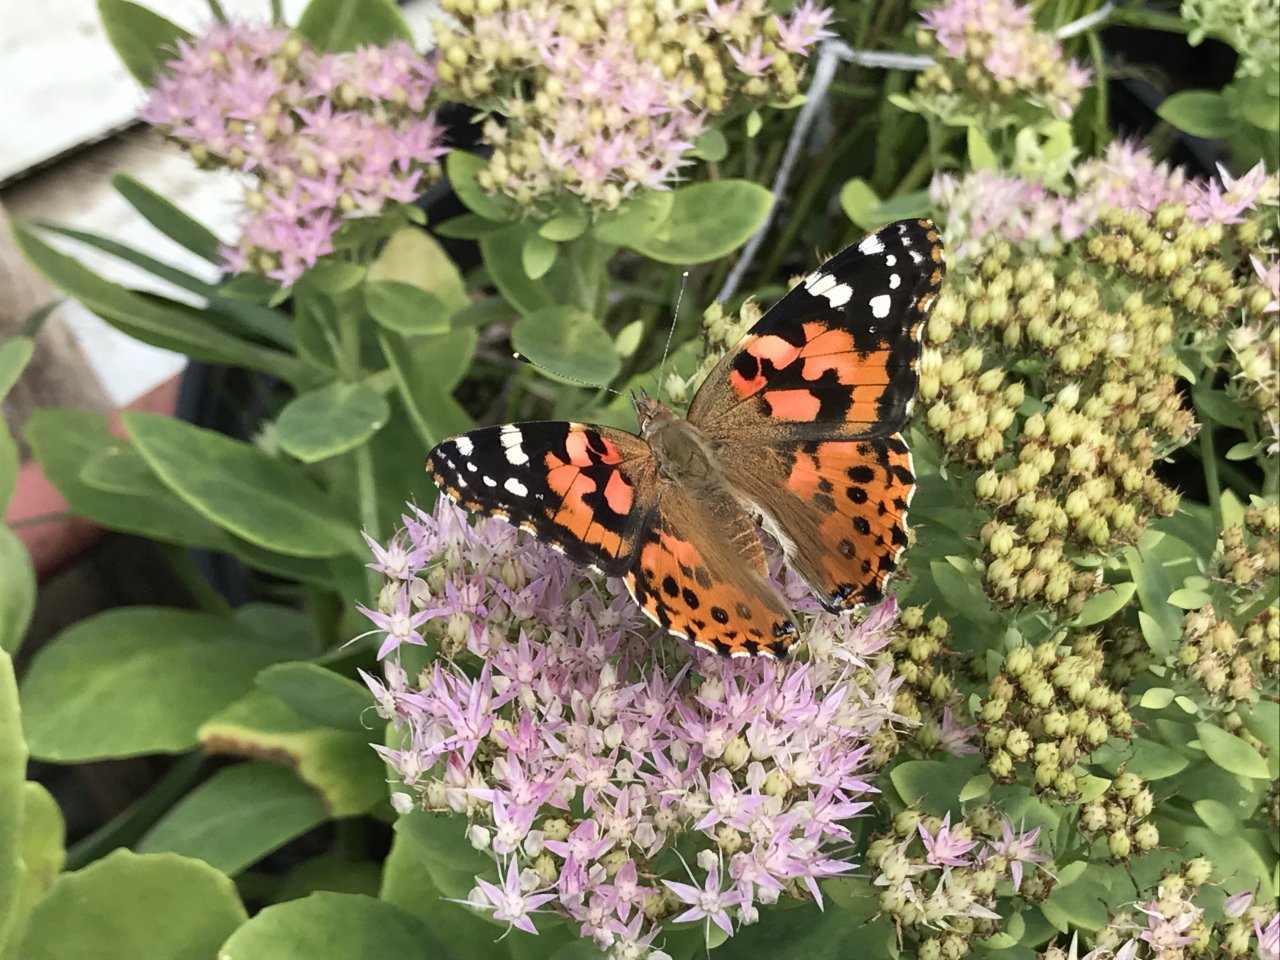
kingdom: Animalia
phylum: Arthropoda
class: Insecta
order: Lepidoptera
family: Nymphalidae
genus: Vanessa
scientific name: Vanessa cardui
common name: Painted Lady
